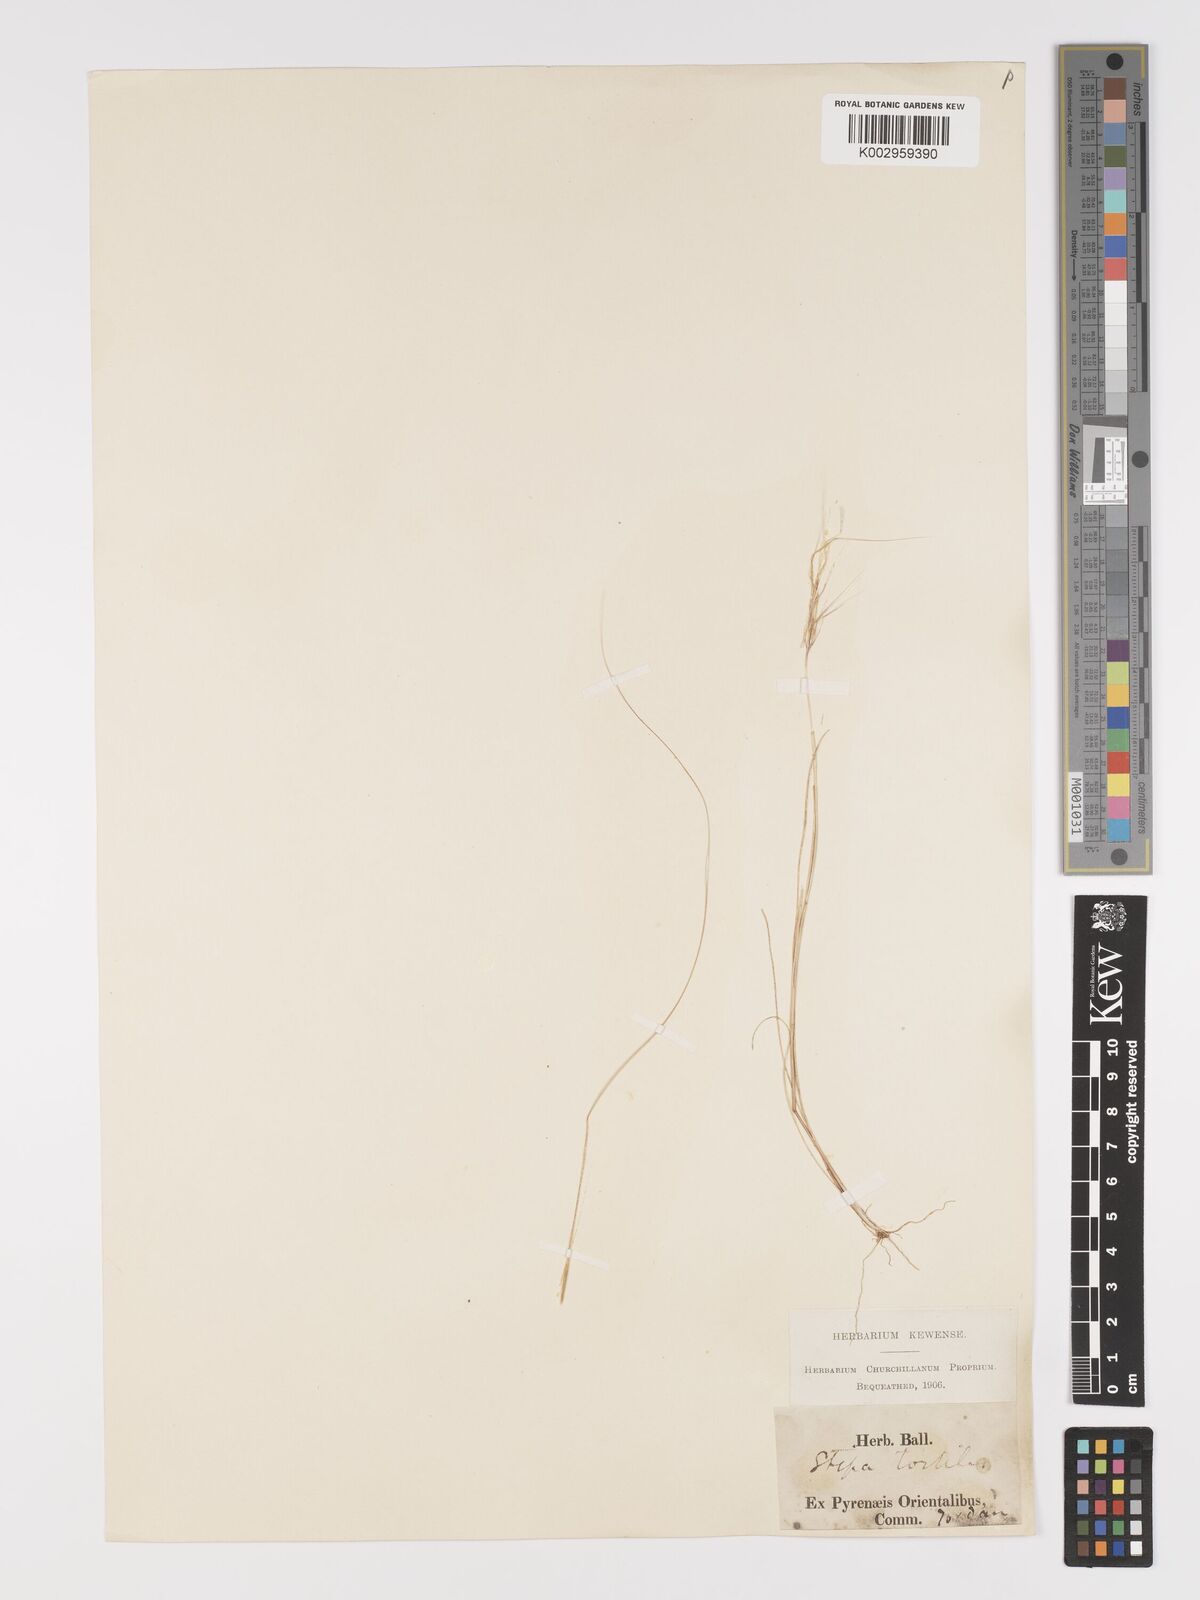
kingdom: Plantae
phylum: Tracheophyta
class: Liliopsida
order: Poales
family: Poaceae
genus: Stipellula
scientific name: Stipellula capensis
